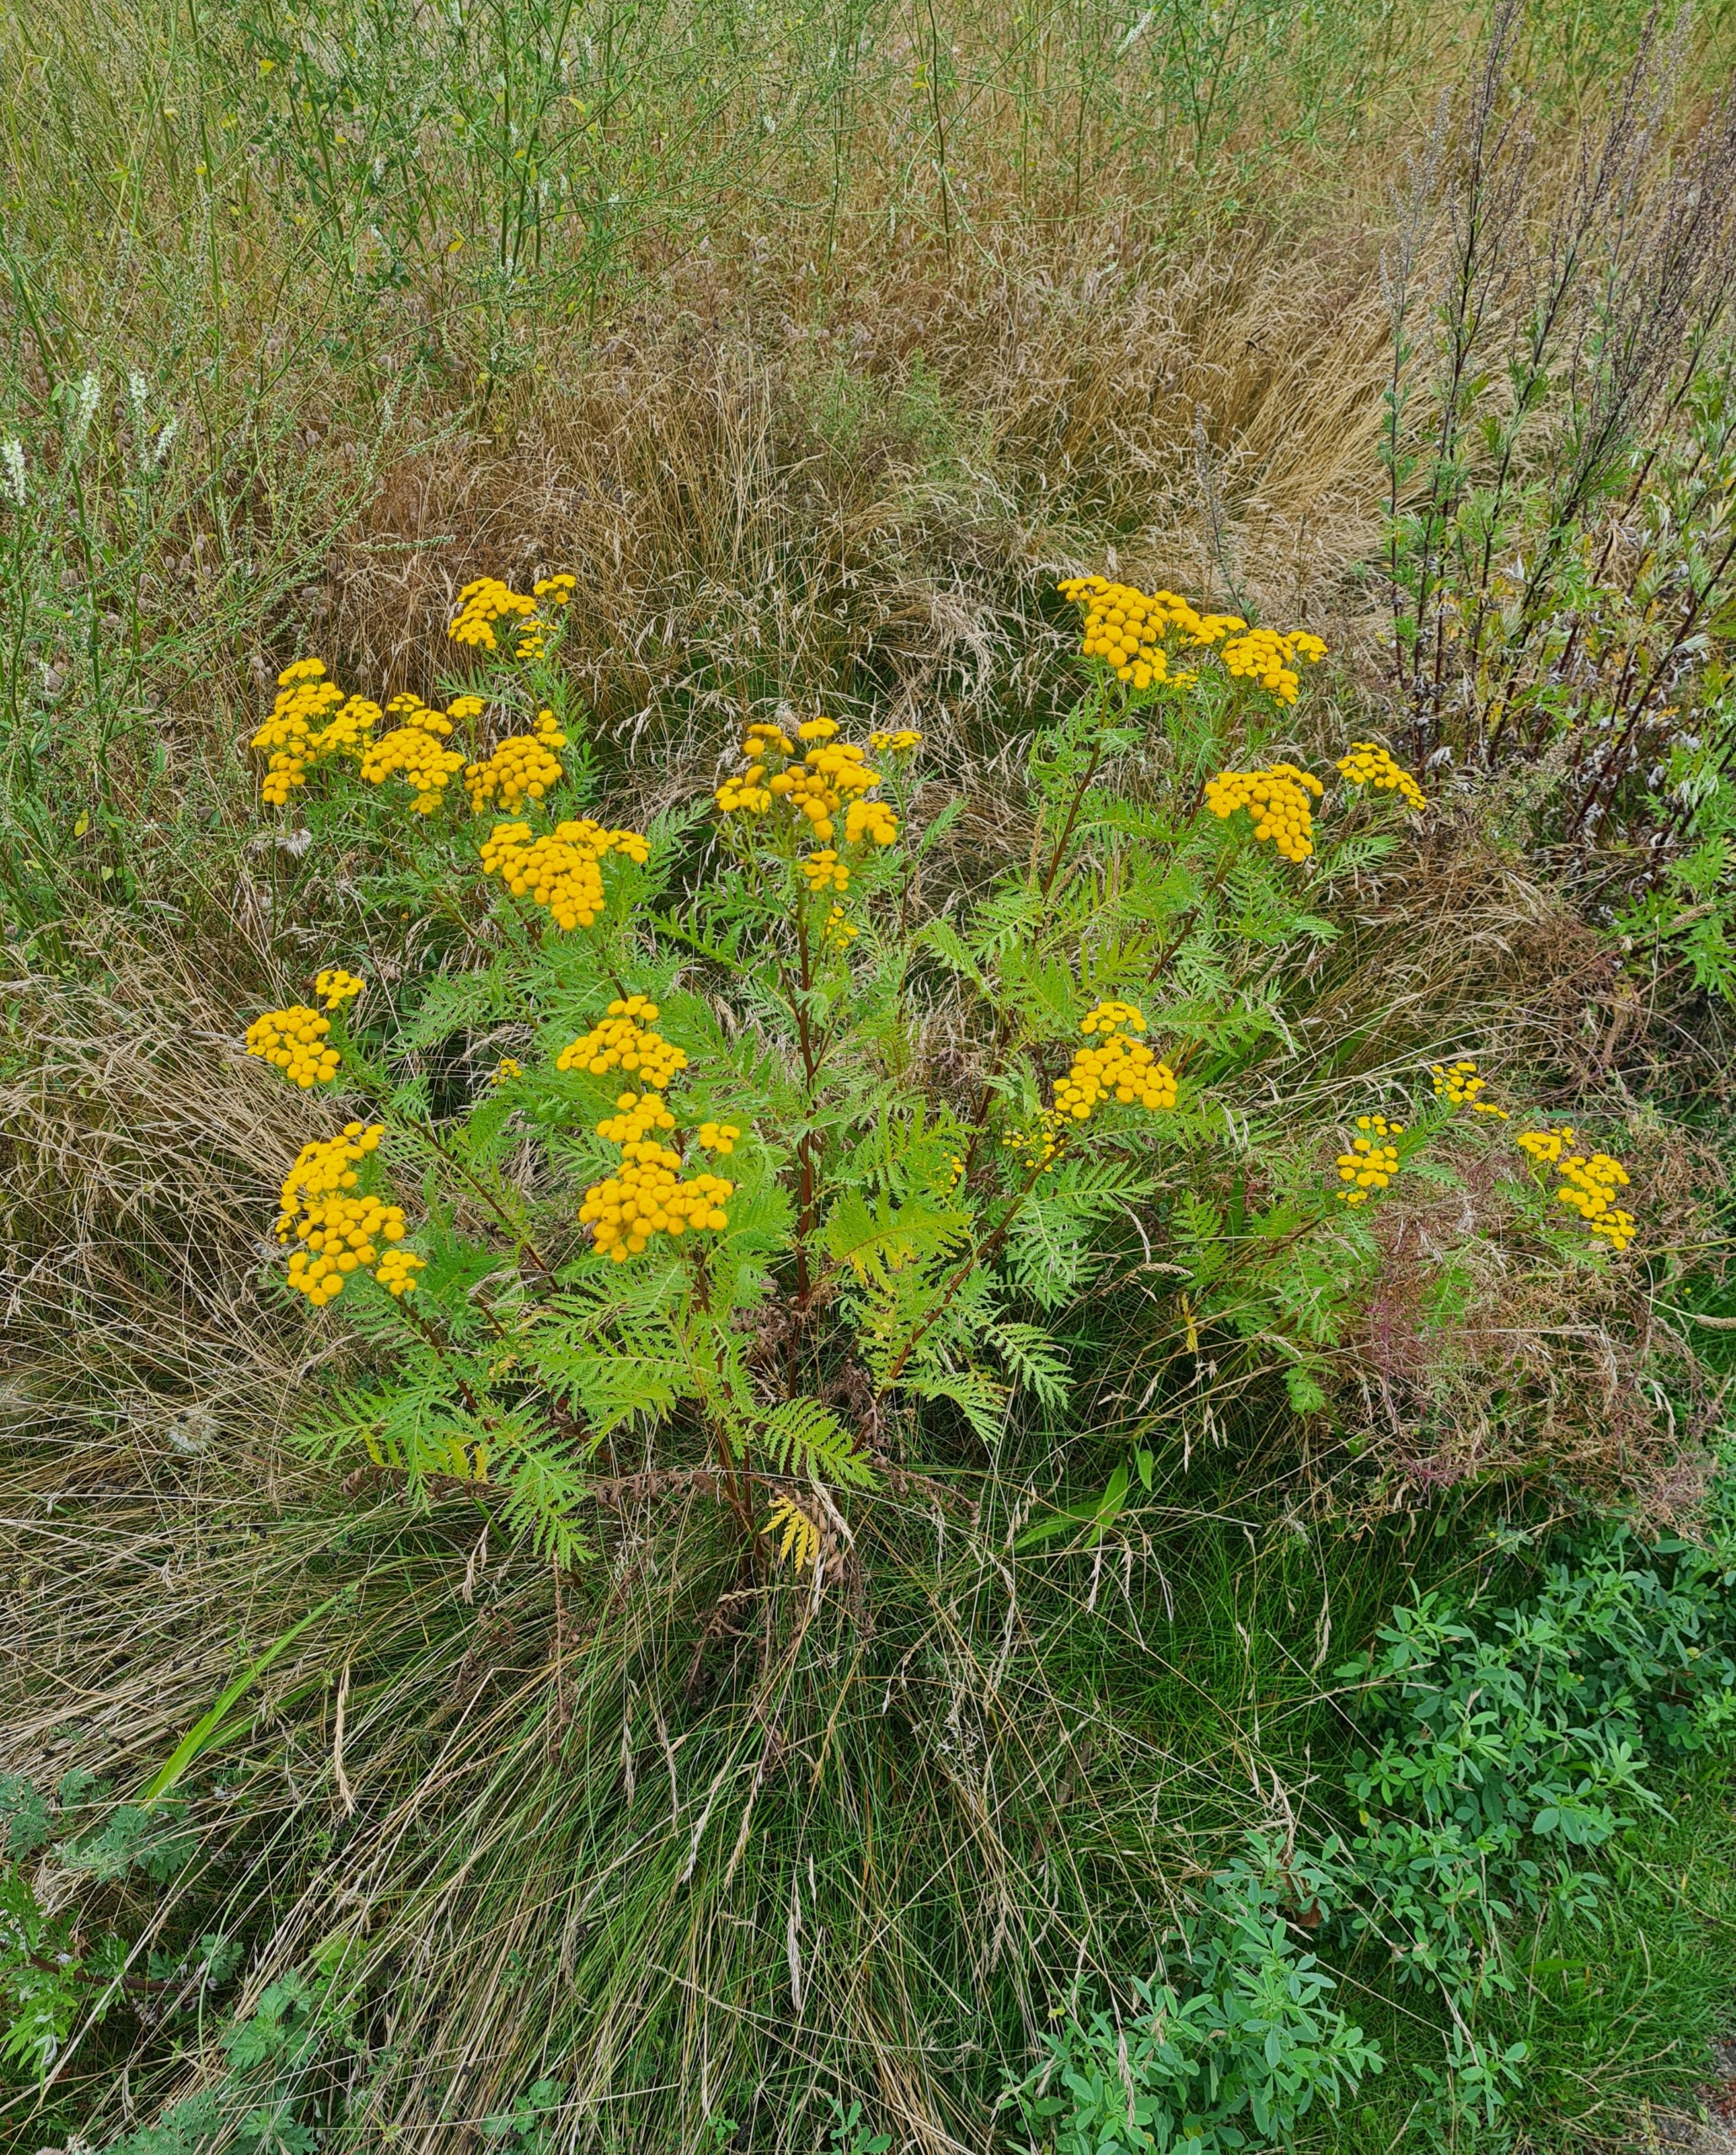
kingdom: Plantae
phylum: Tracheophyta
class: Magnoliopsida
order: Asterales
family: Asteraceae
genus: Tanacetum
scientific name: Tanacetum vulgare
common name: Rejnfan
